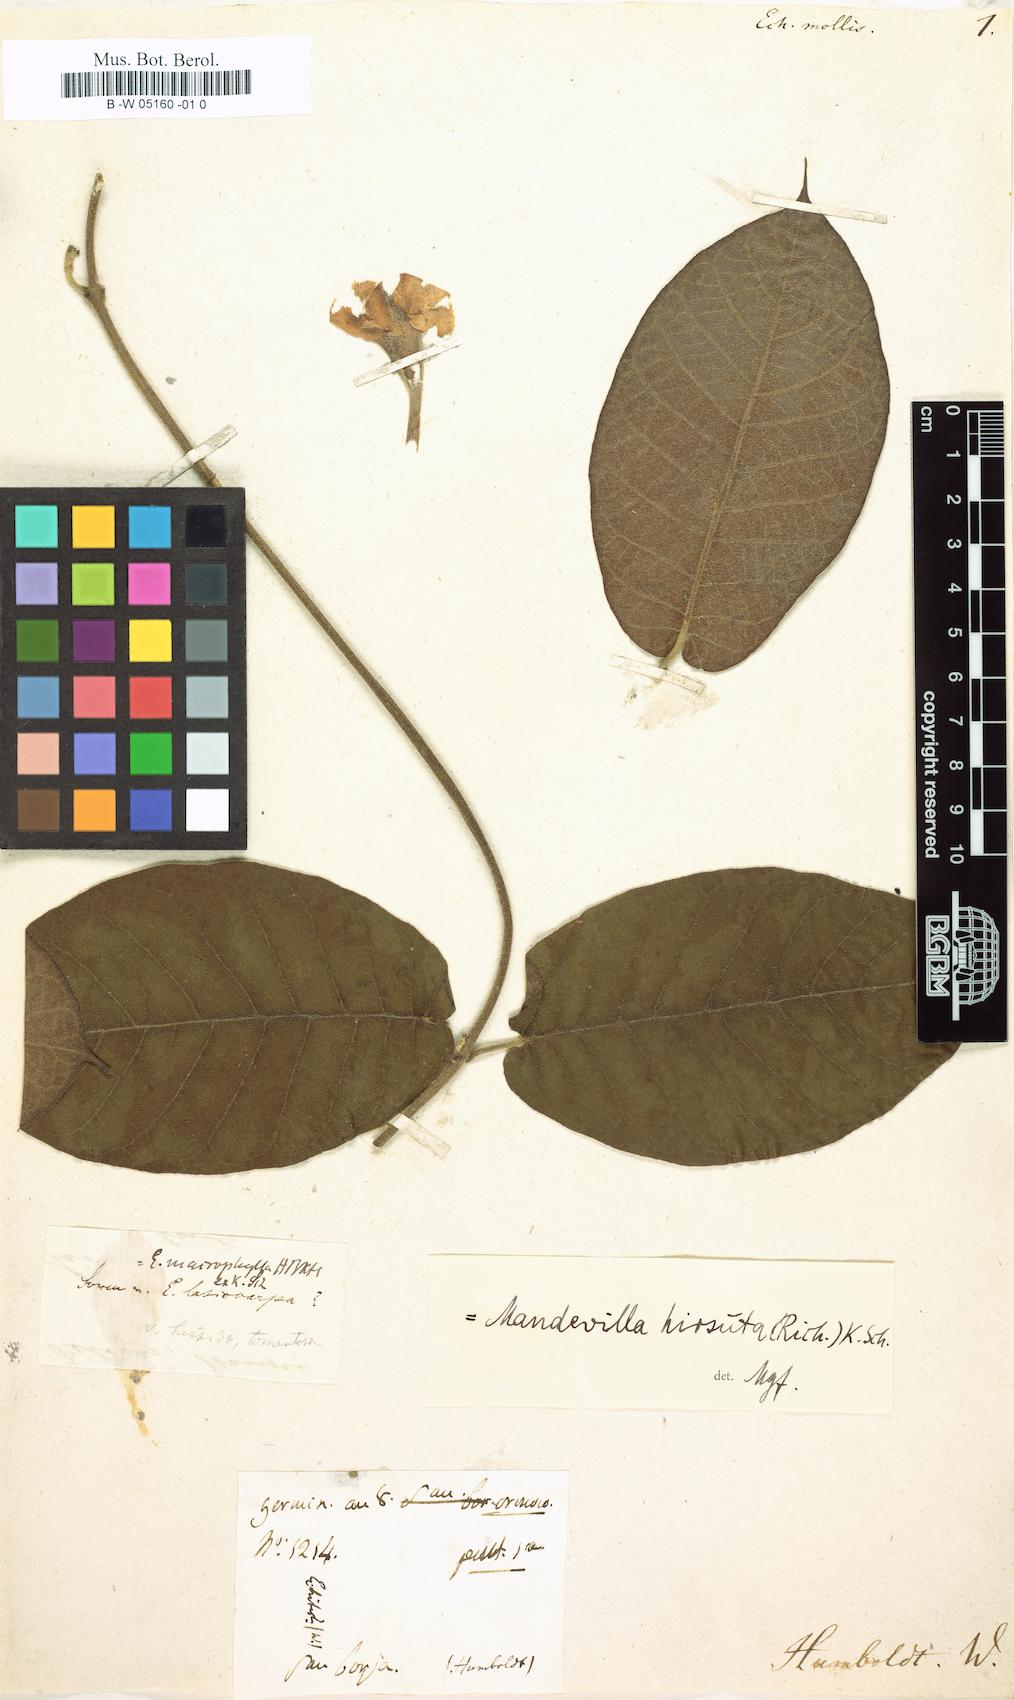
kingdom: Plantae
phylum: Tracheophyta
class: Magnoliopsida
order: Gentianales
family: Apocynaceae
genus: Mandevilla
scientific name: Mandevilla hirsuta
